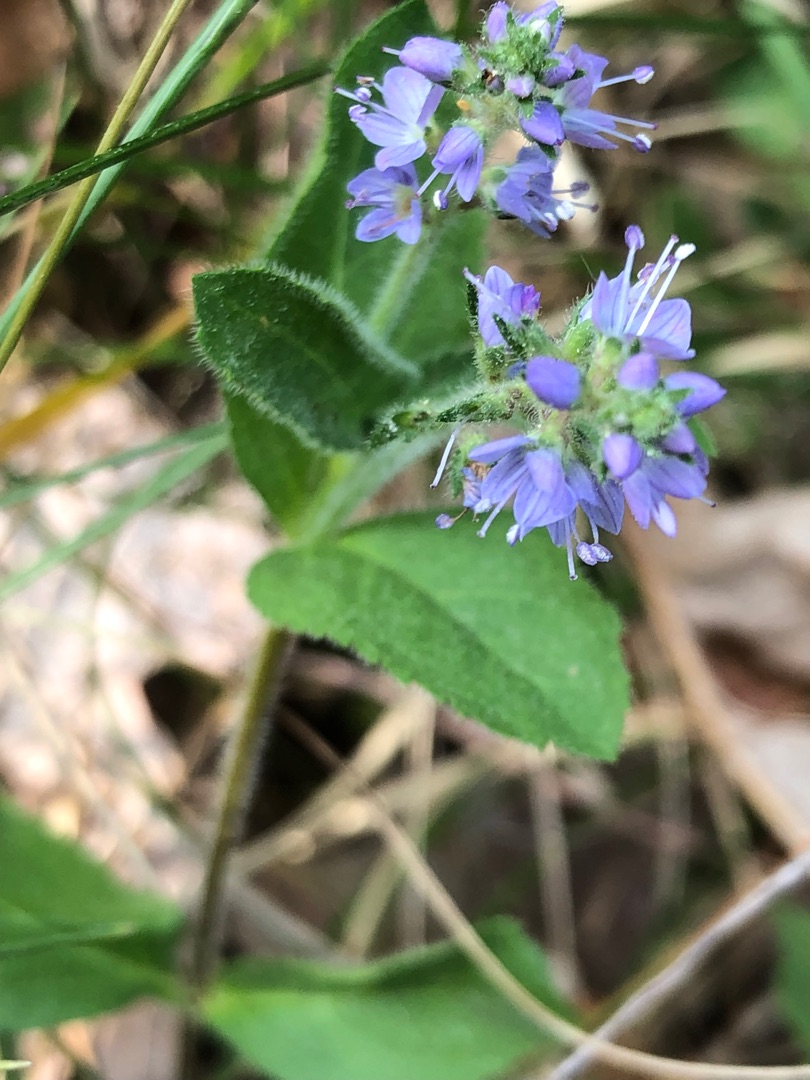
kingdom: Plantae
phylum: Tracheophyta
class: Magnoliopsida
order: Lamiales
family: Plantaginaceae
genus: Veronica
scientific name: Veronica officinalis
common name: Læge-ærenpris
